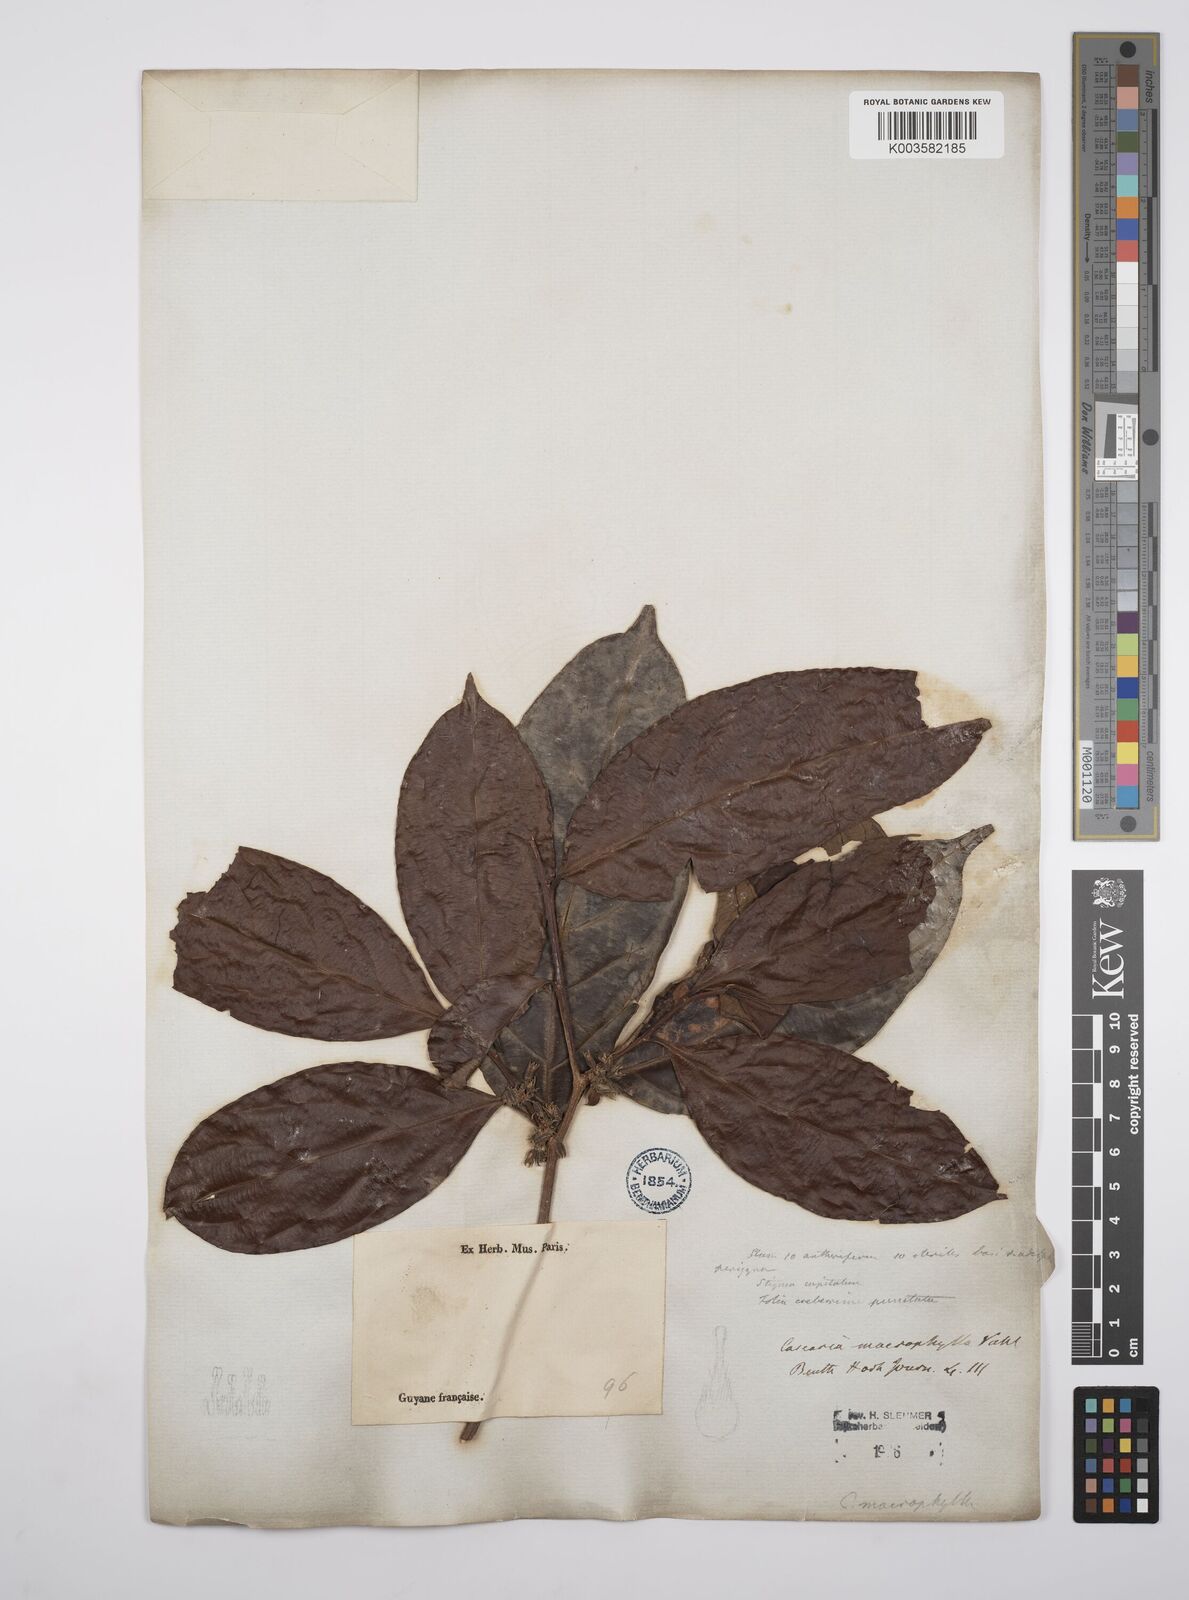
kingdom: Plantae
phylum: Tracheophyta
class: Magnoliopsida
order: Malpighiales
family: Salicaceae
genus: Casearia
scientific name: Casearia pitumba
